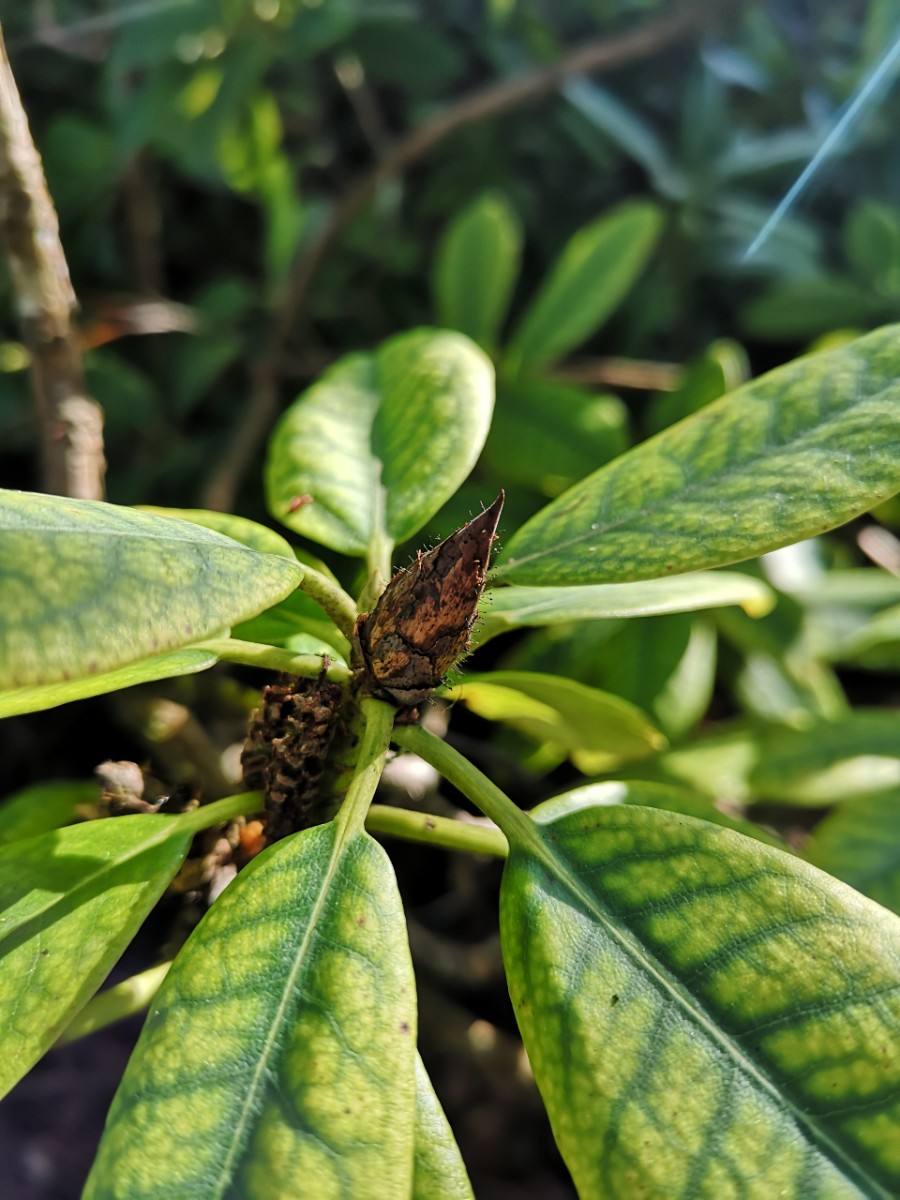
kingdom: Fungi
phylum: Ascomycota
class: Dothideomycetes
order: Pleosporales
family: Melanommataceae
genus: Seifertia
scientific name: Seifertia azaleae
